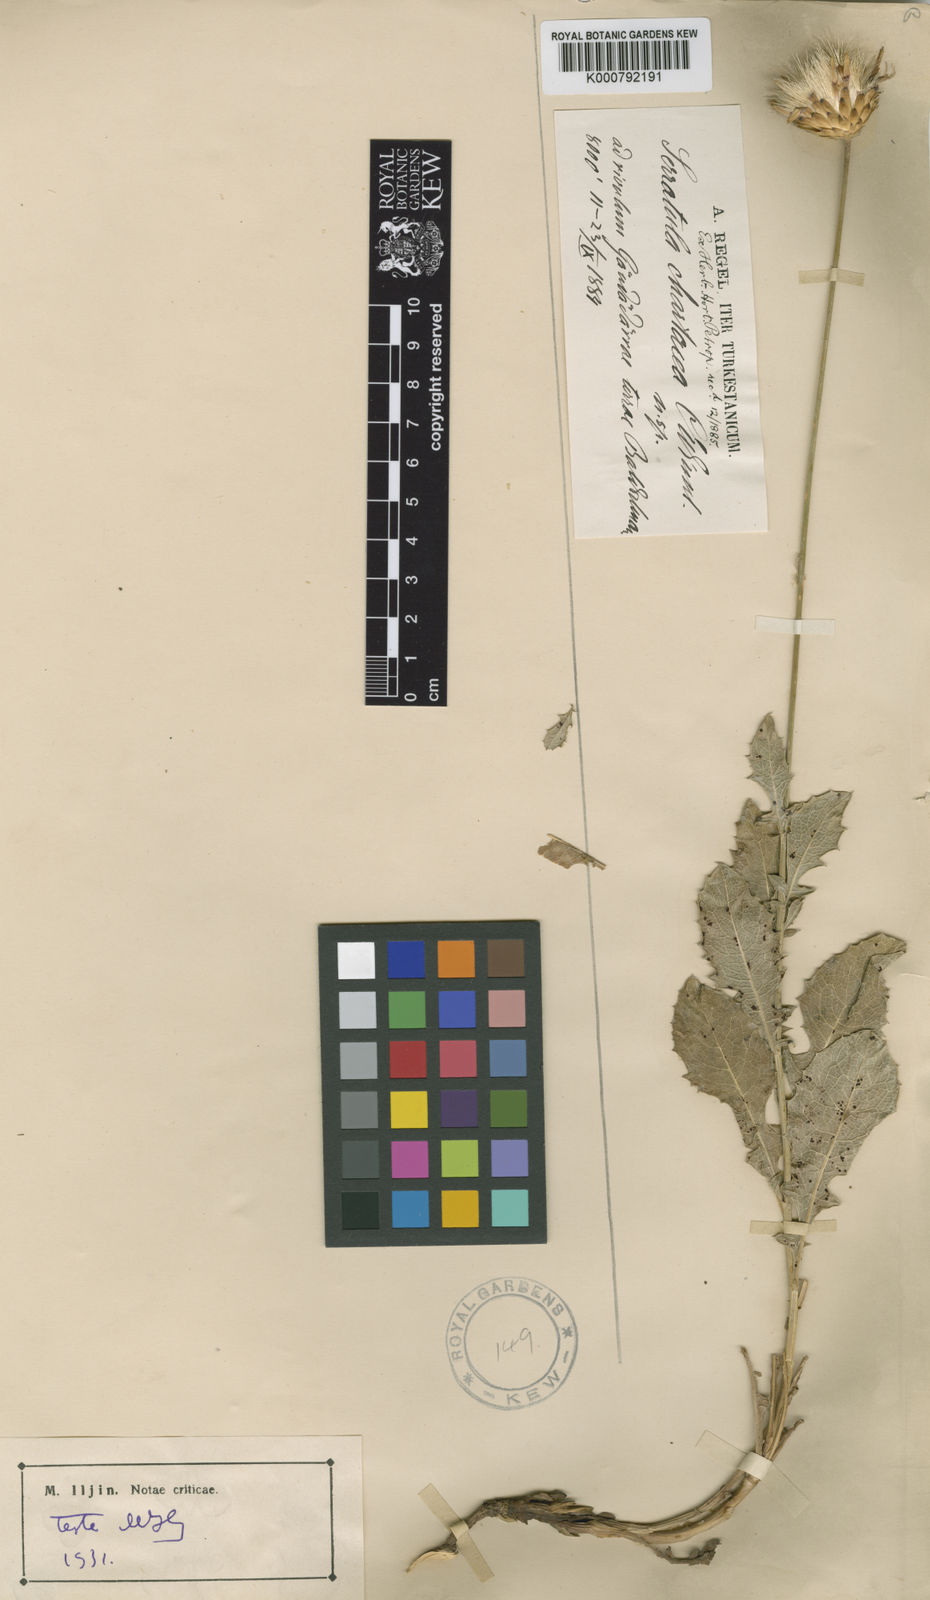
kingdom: Plantae
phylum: Tracheophyta
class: Magnoliopsida
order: Asterales
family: Asteraceae
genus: Klasea
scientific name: Klasea chartacea
